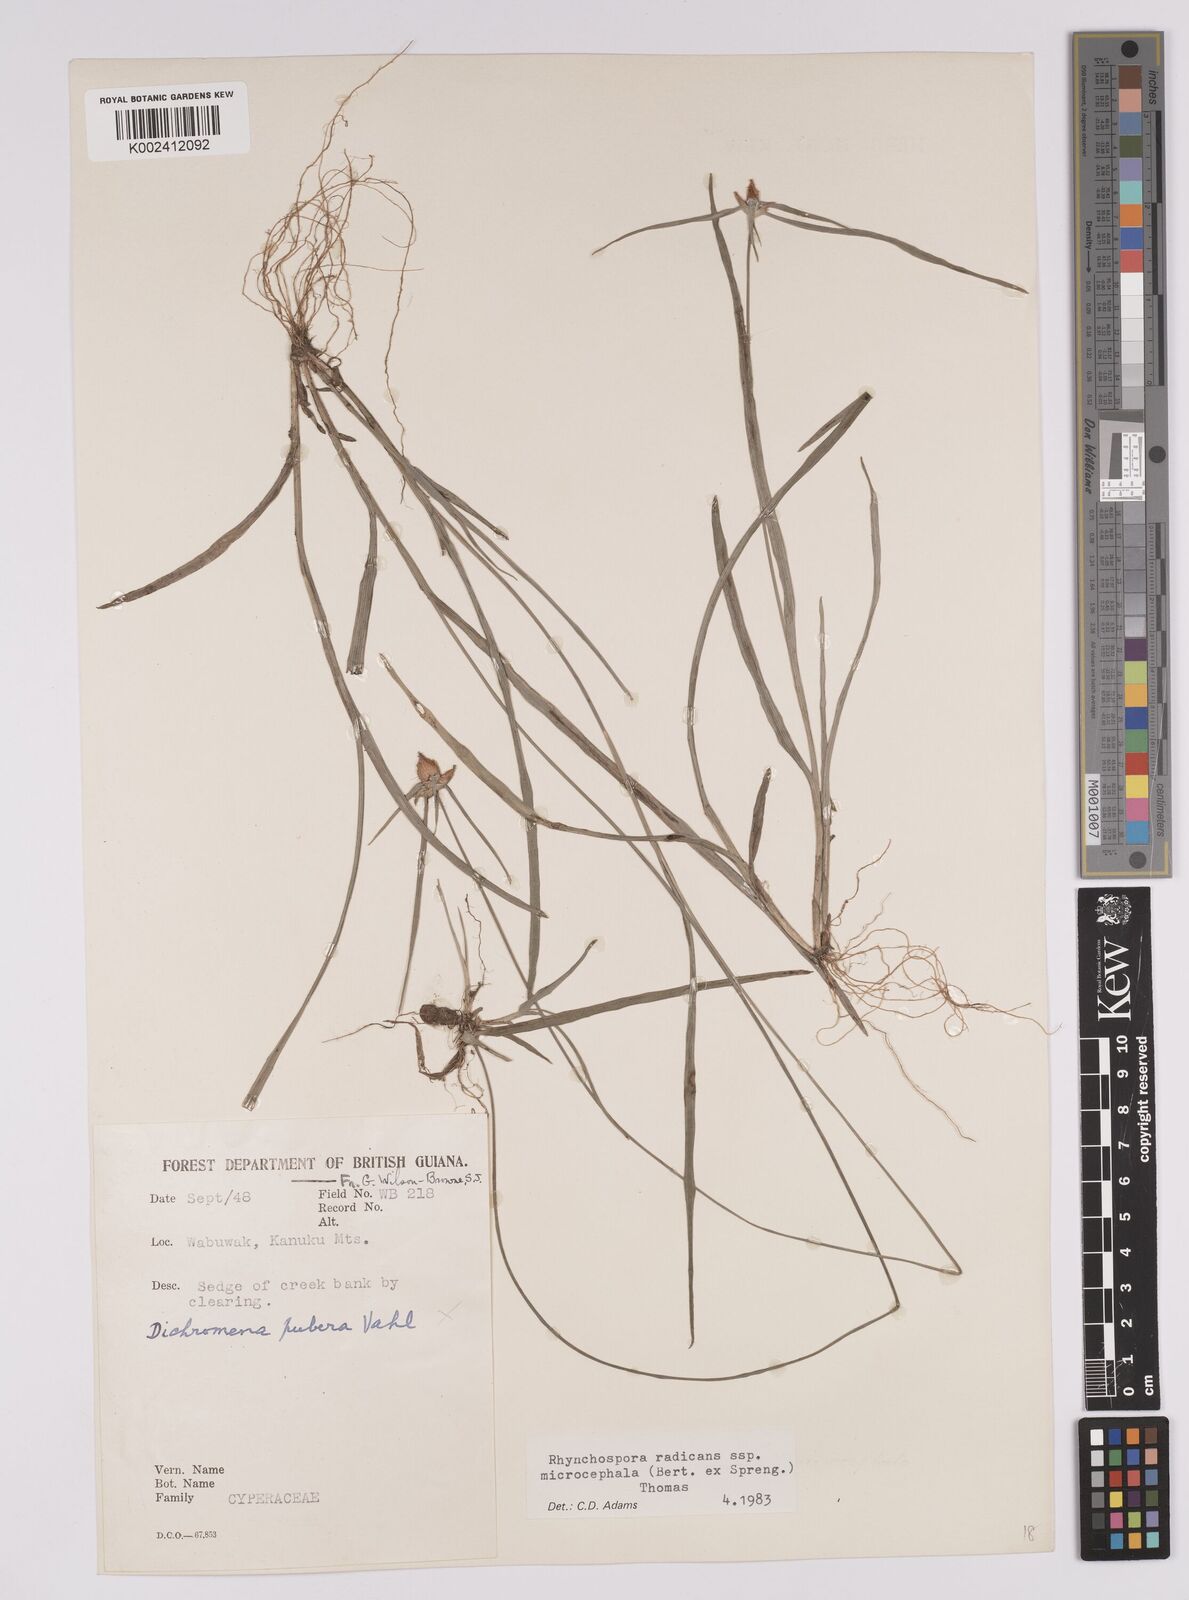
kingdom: Plantae
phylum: Tracheophyta
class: Liliopsida
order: Poales
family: Cyperaceae
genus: Rhynchospora
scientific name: Rhynchospora radicans
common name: Tropical whitetop
